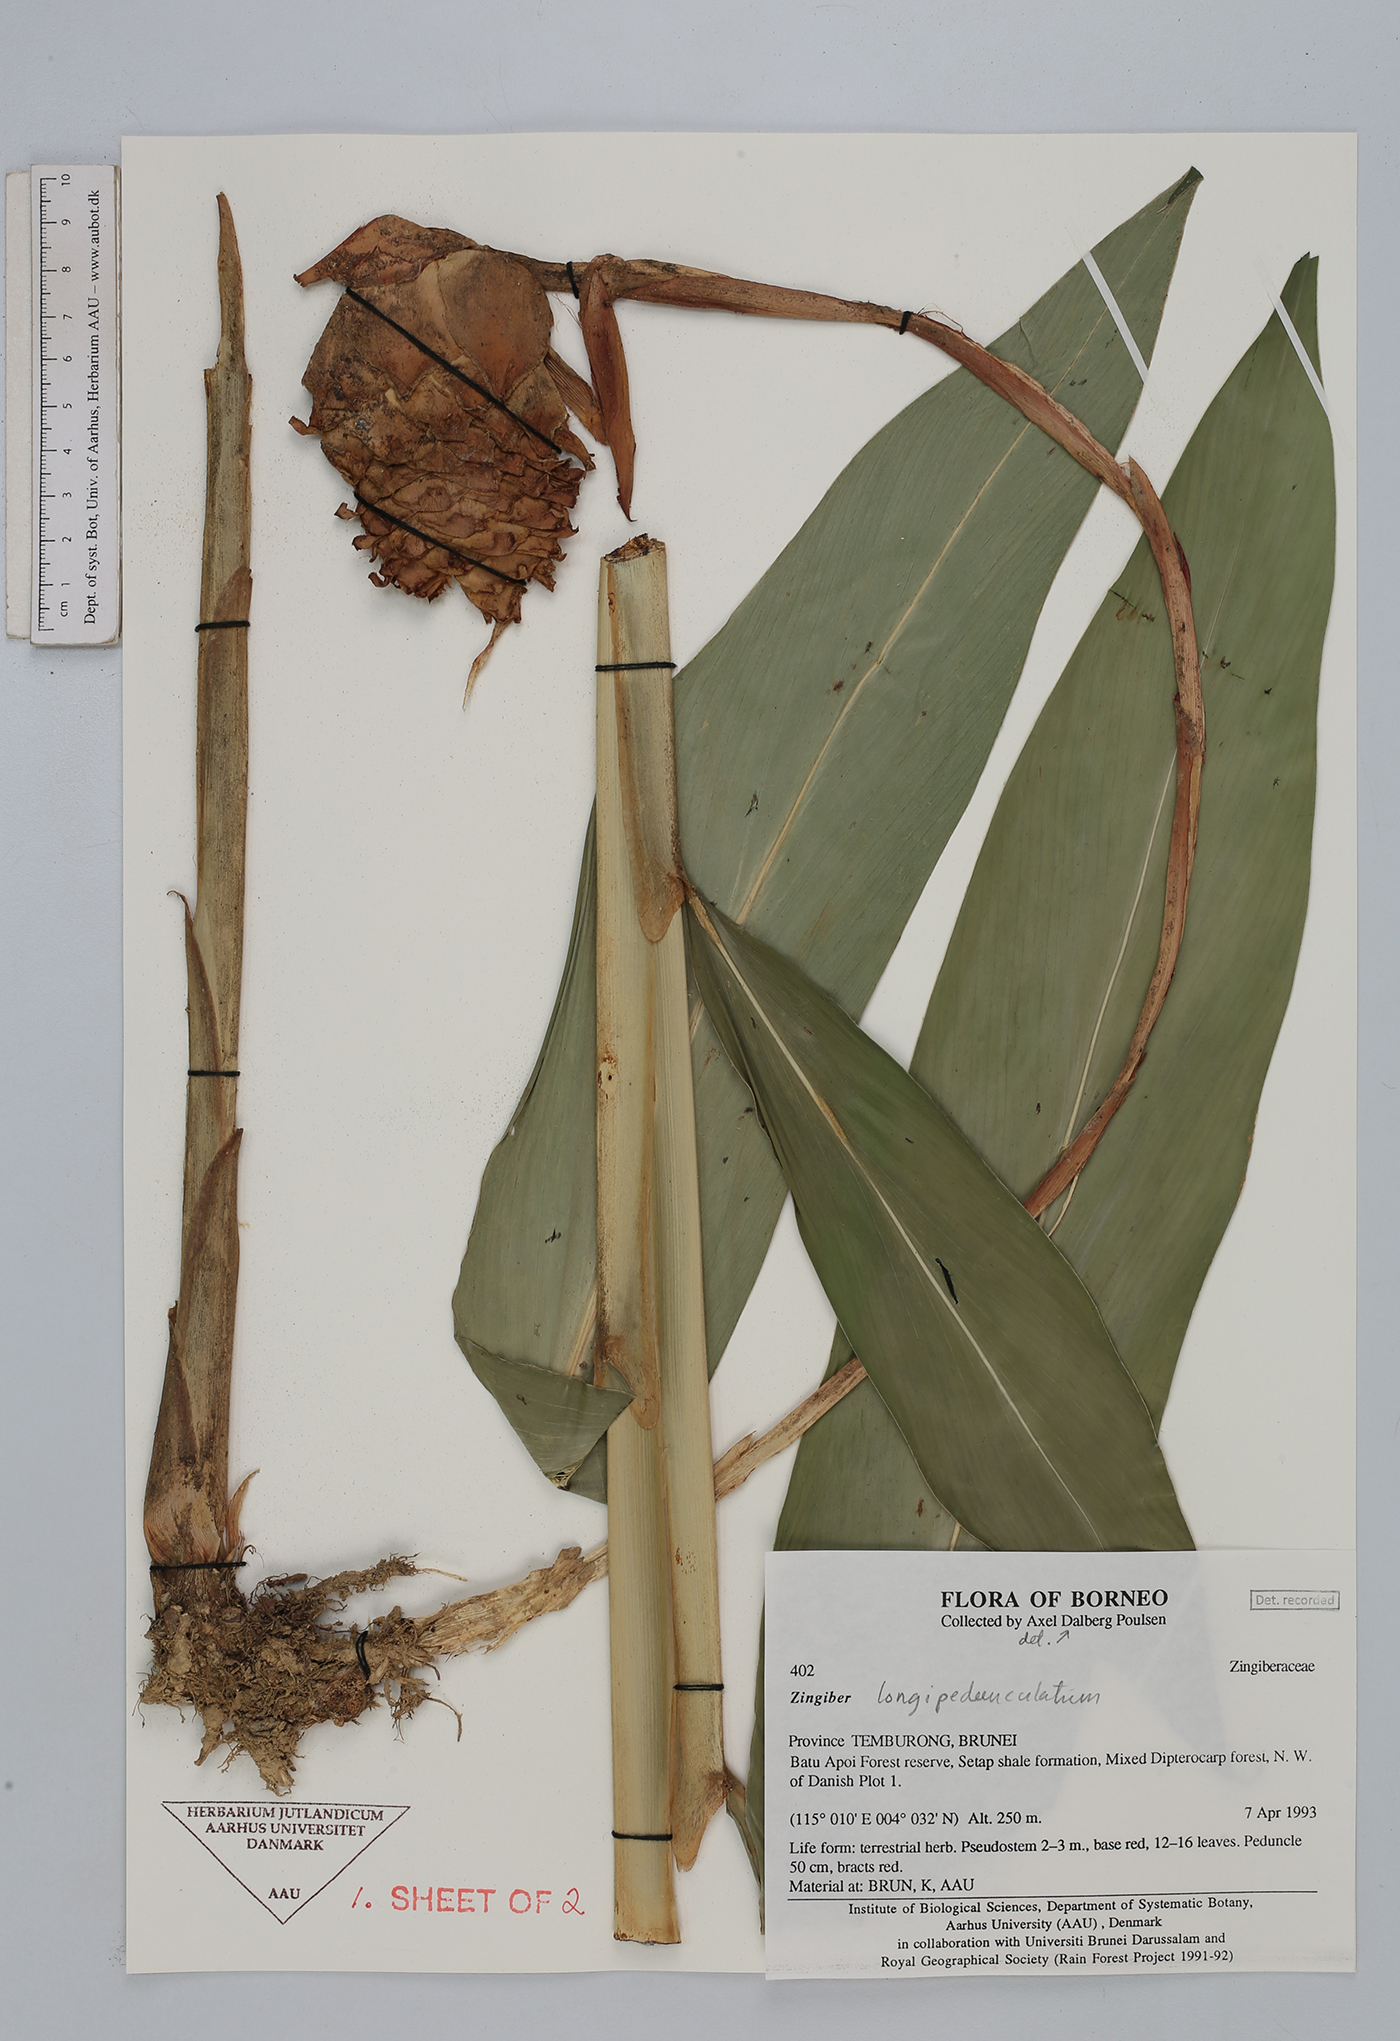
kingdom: Plantae
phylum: Tracheophyta
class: Liliopsida
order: Zingiberales
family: Zingiberaceae
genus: Zingiber
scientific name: Zingiber longipedunculatum
